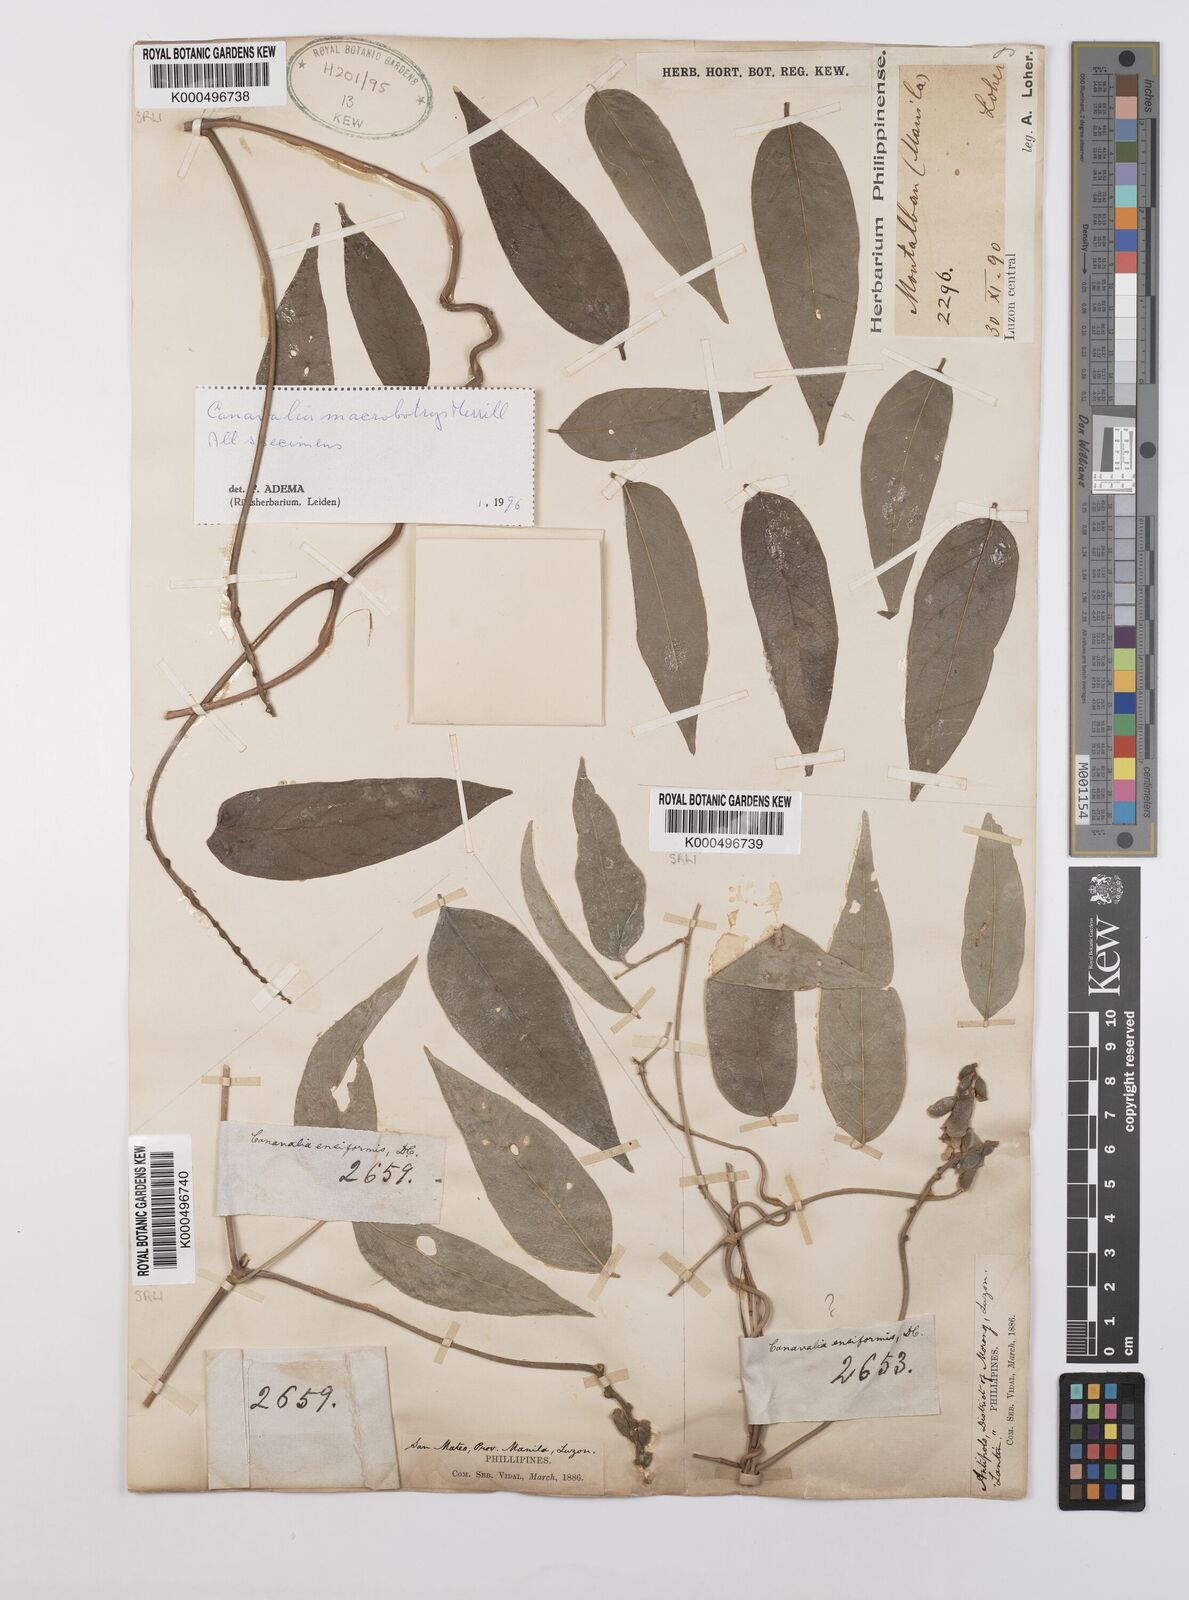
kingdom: Plantae
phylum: Tracheophyta
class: Magnoliopsida
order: Fabales
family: Fabaceae
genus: Canavalia
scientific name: Canavalia macrobotrys
